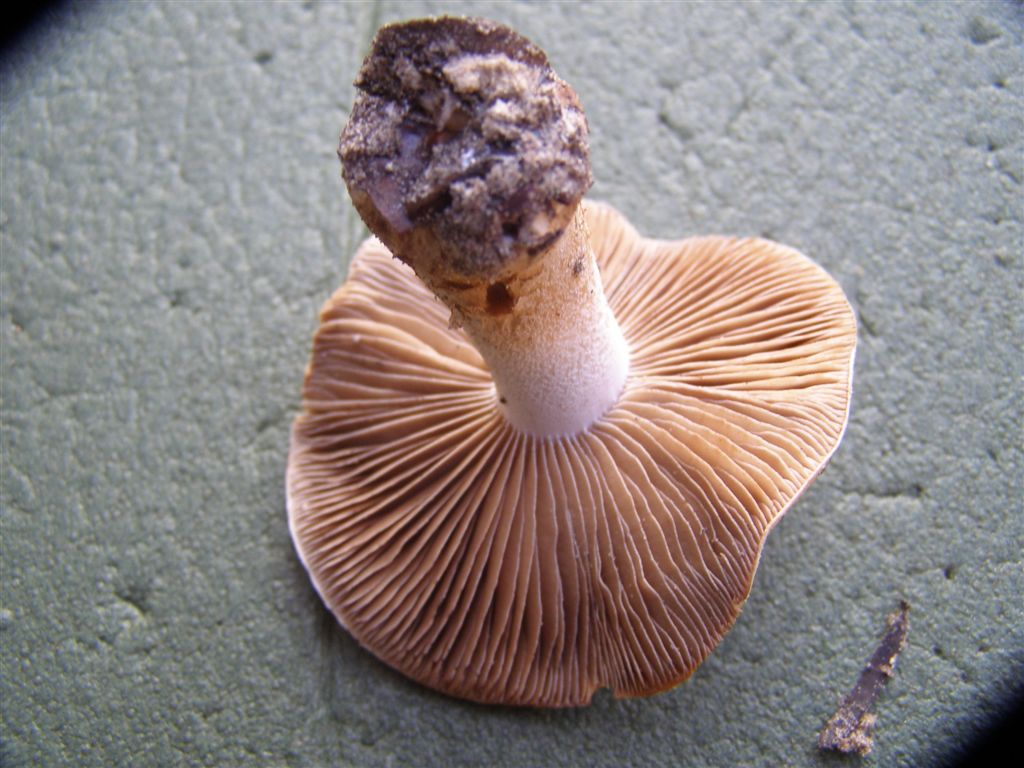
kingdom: Fungi
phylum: Basidiomycota
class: Agaricomycetes
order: Agaricales
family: Hymenogastraceae
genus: Hebeloma
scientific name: Hebeloma laterinum
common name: kakao-tåreblad
